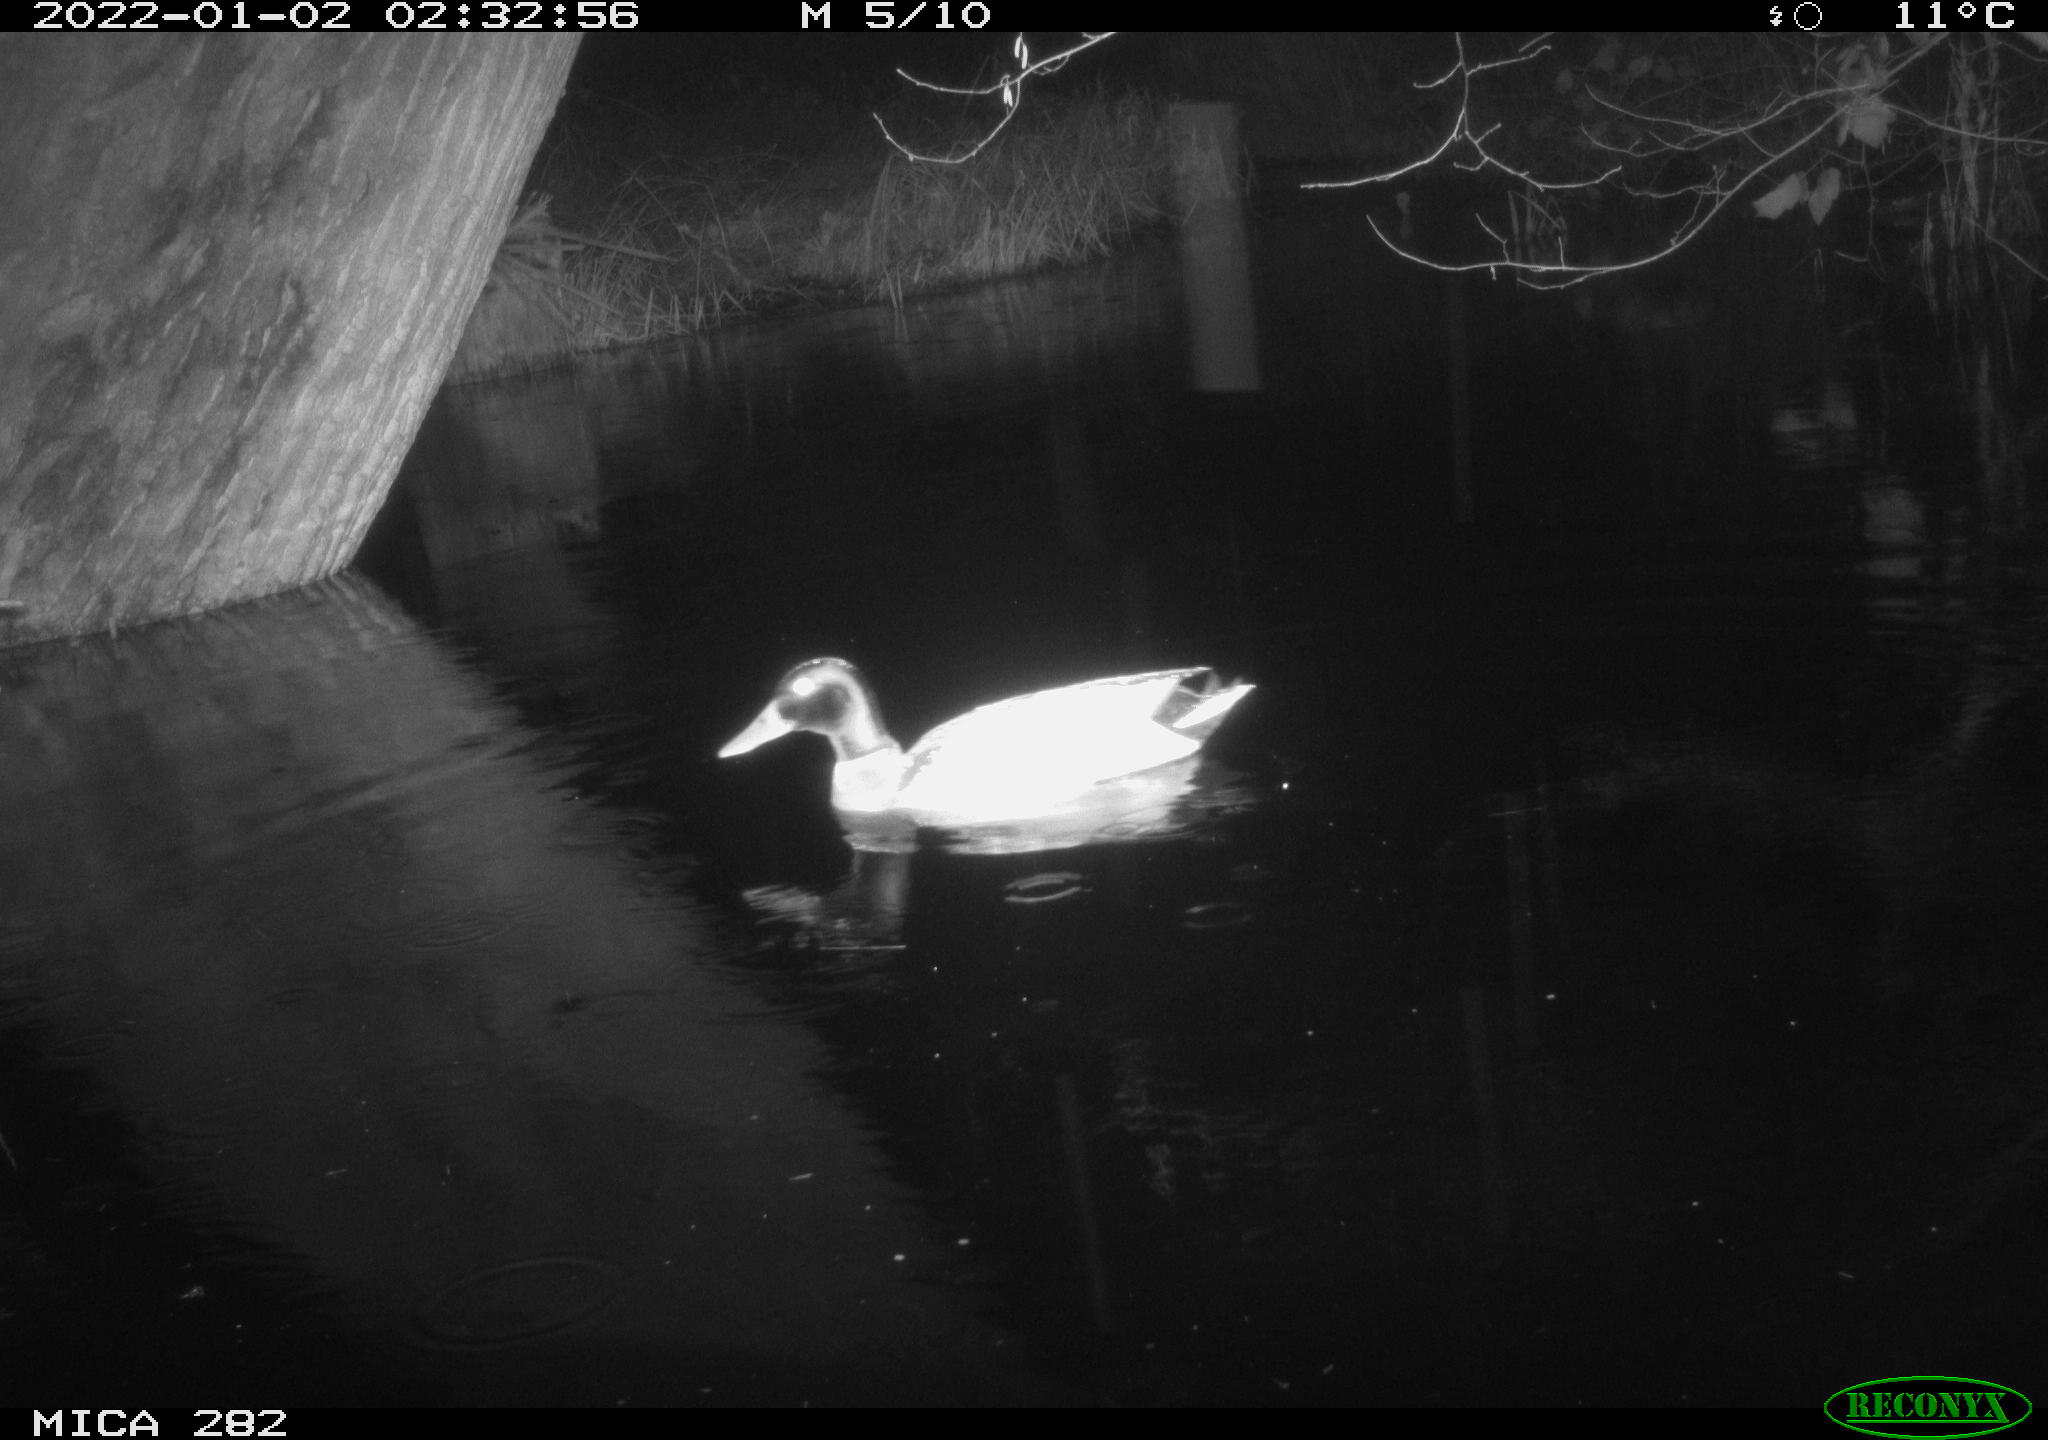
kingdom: Animalia
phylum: Chordata
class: Aves
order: Anseriformes
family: Anatidae
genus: Anas
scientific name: Anas platyrhynchos
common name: Mallard
